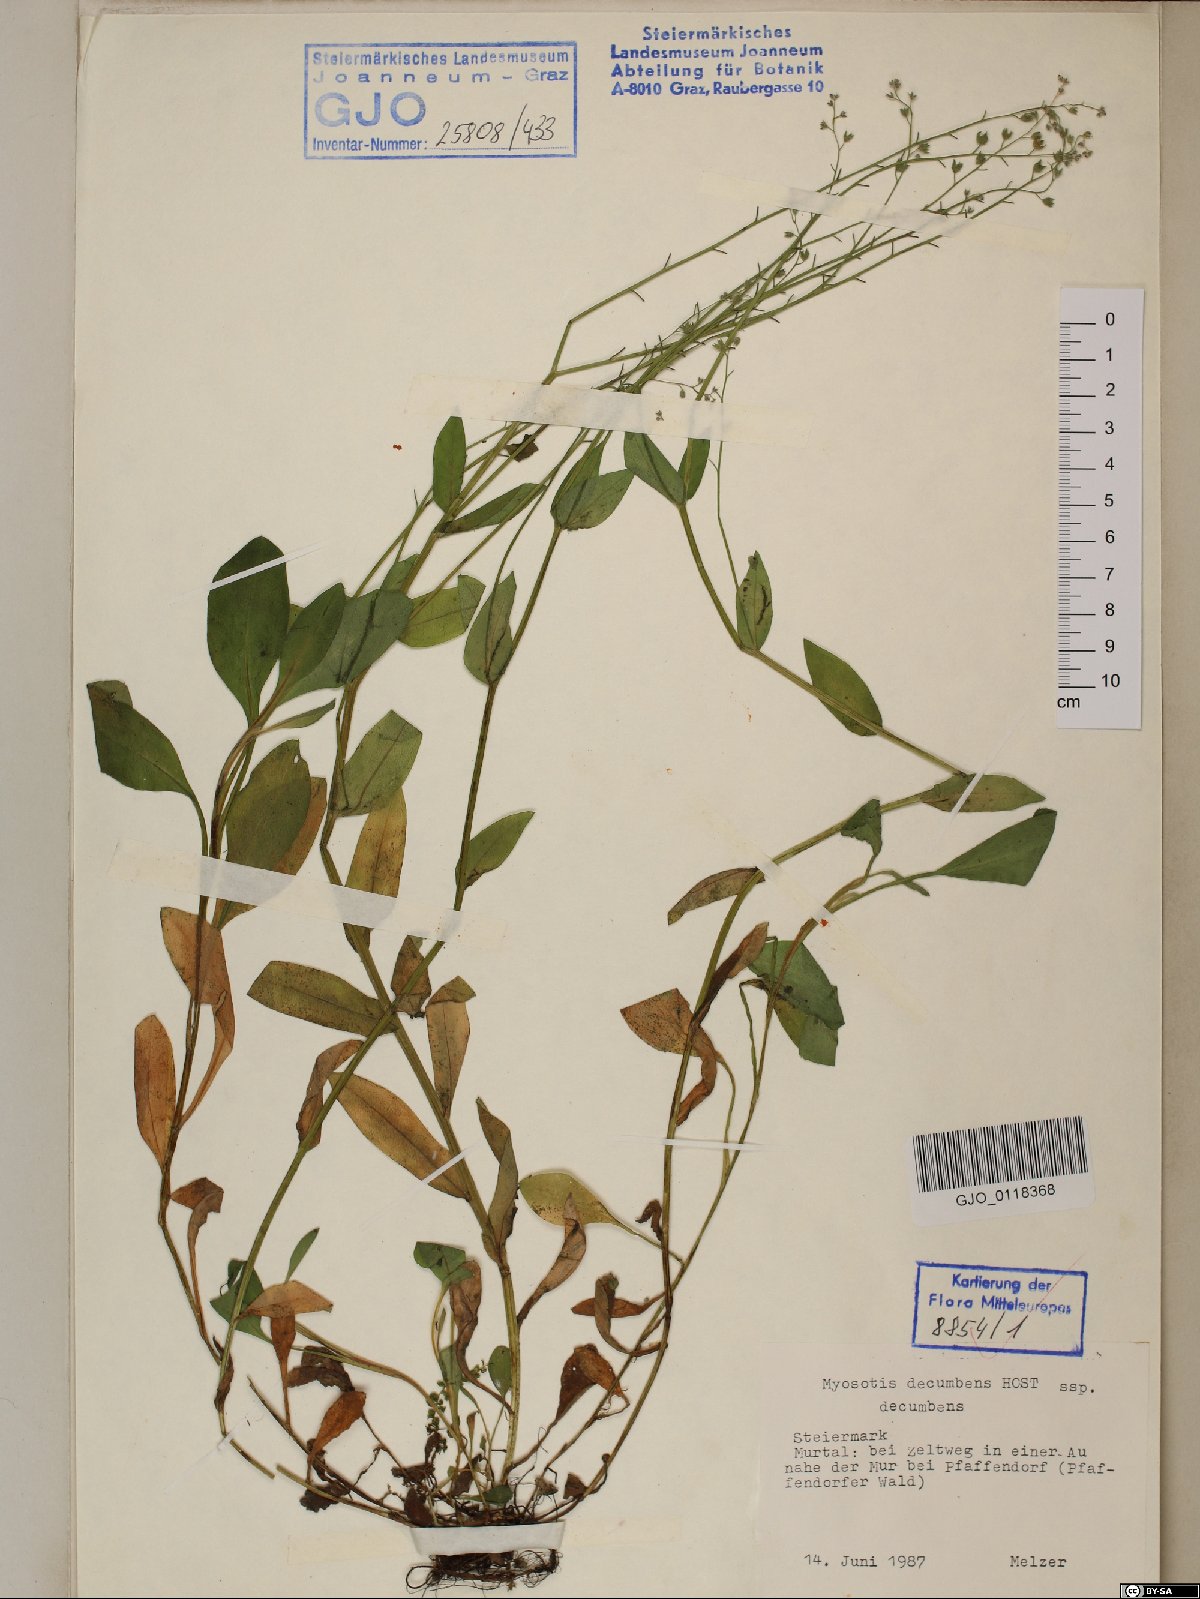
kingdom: Plantae
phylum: Tracheophyta
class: Magnoliopsida
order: Boraginales
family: Boraginaceae
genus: Myosotis
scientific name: Myosotis decumbens
